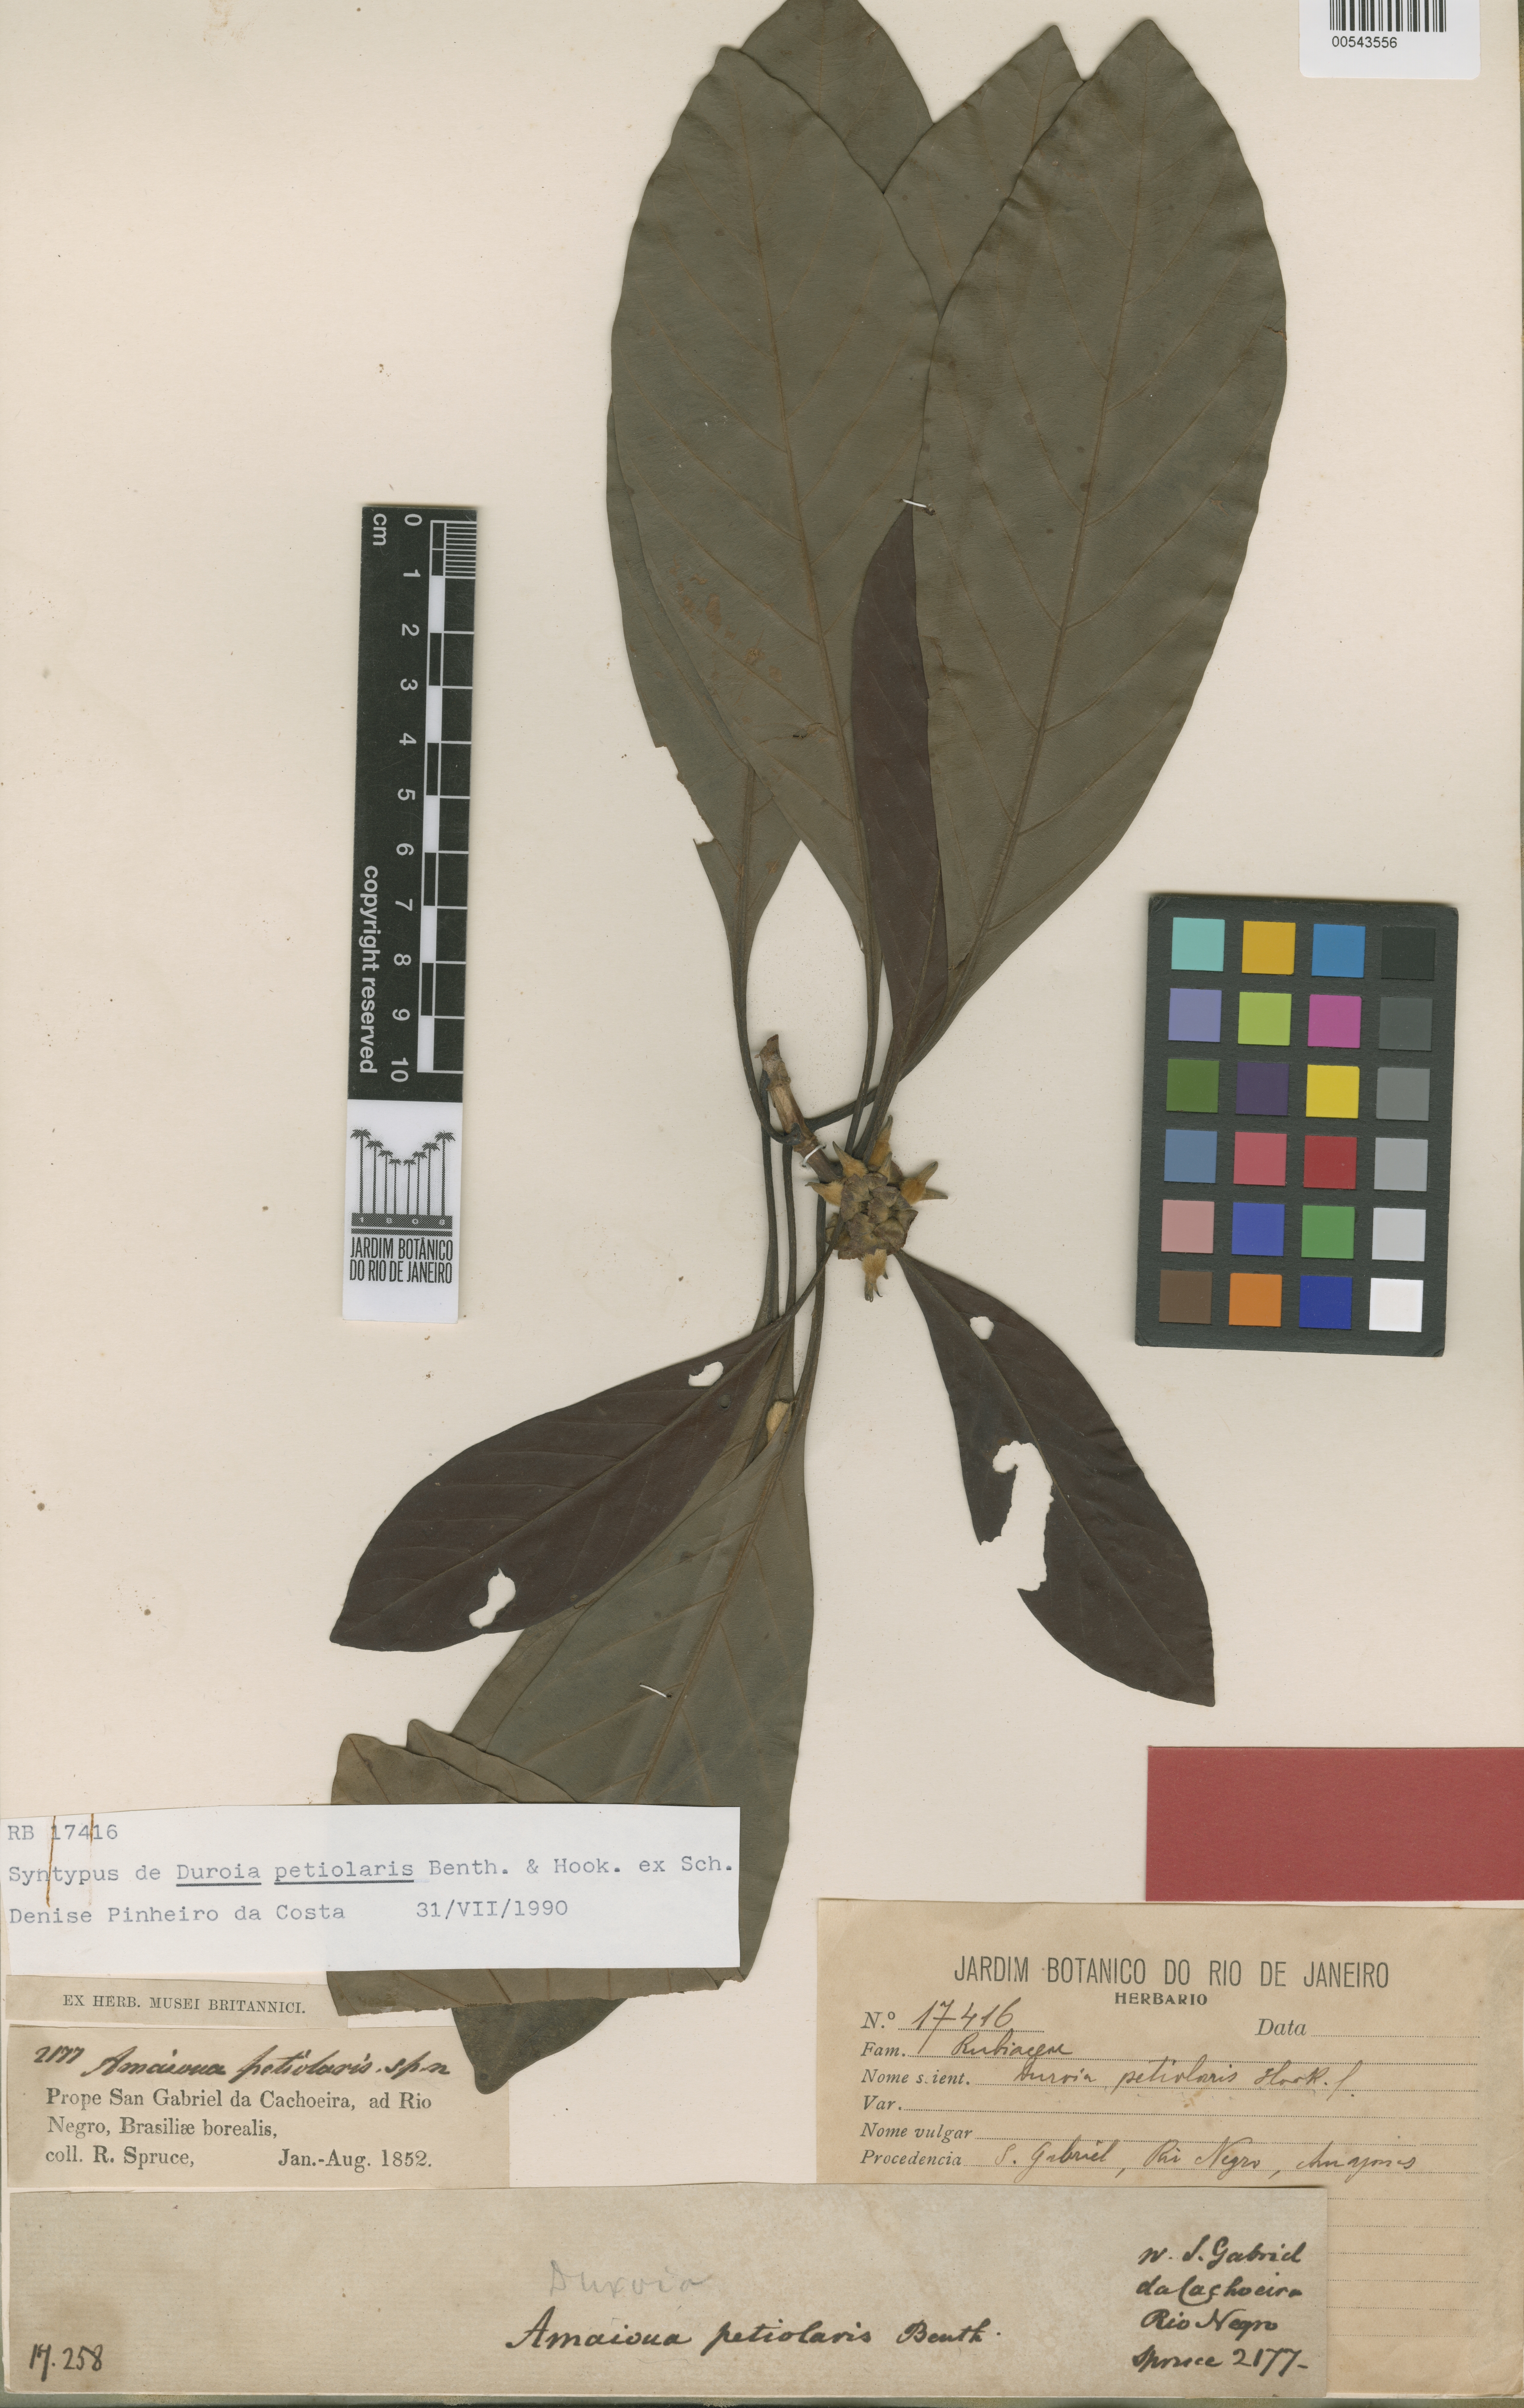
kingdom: Plantae
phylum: Tracheophyta
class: Magnoliopsida
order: Gentianales
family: Rubiaceae
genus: Duroia
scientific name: Duroia petiolaris
